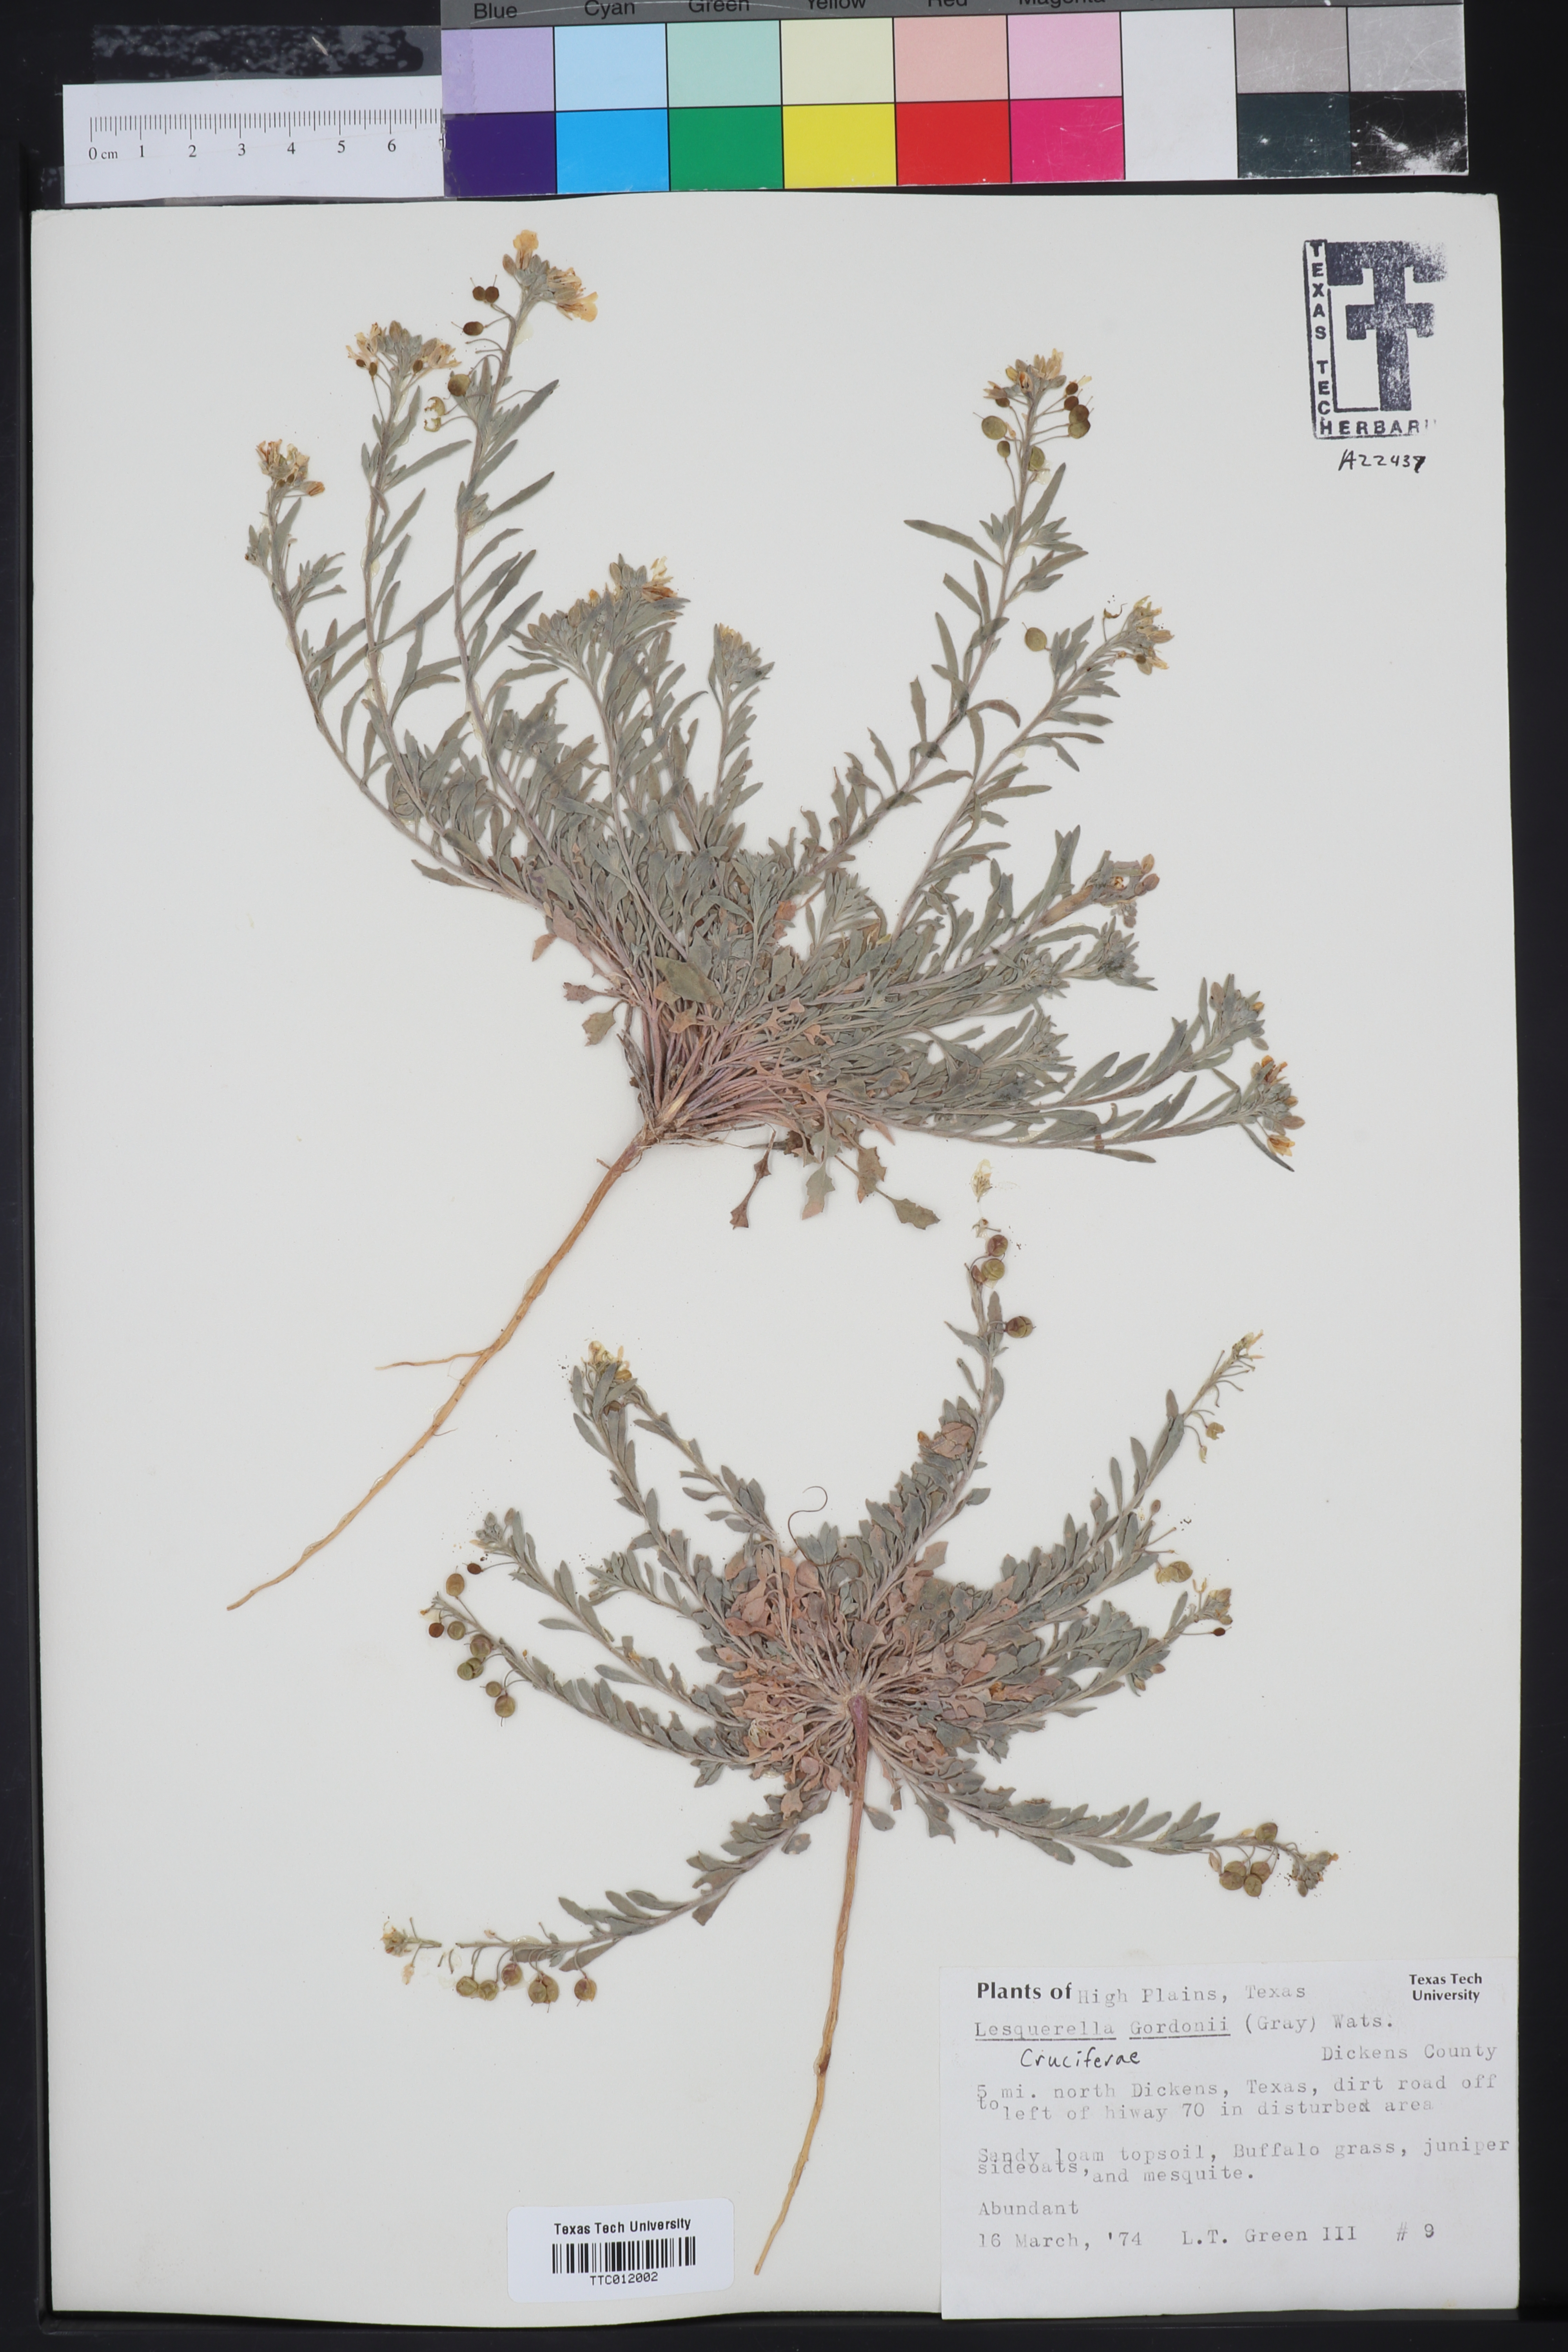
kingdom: Plantae
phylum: Tracheophyta
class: Magnoliopsida
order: Brassicales
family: Brassicaceae
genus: Physaria
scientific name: Physaria gordonii
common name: Gordon's bladderpod
